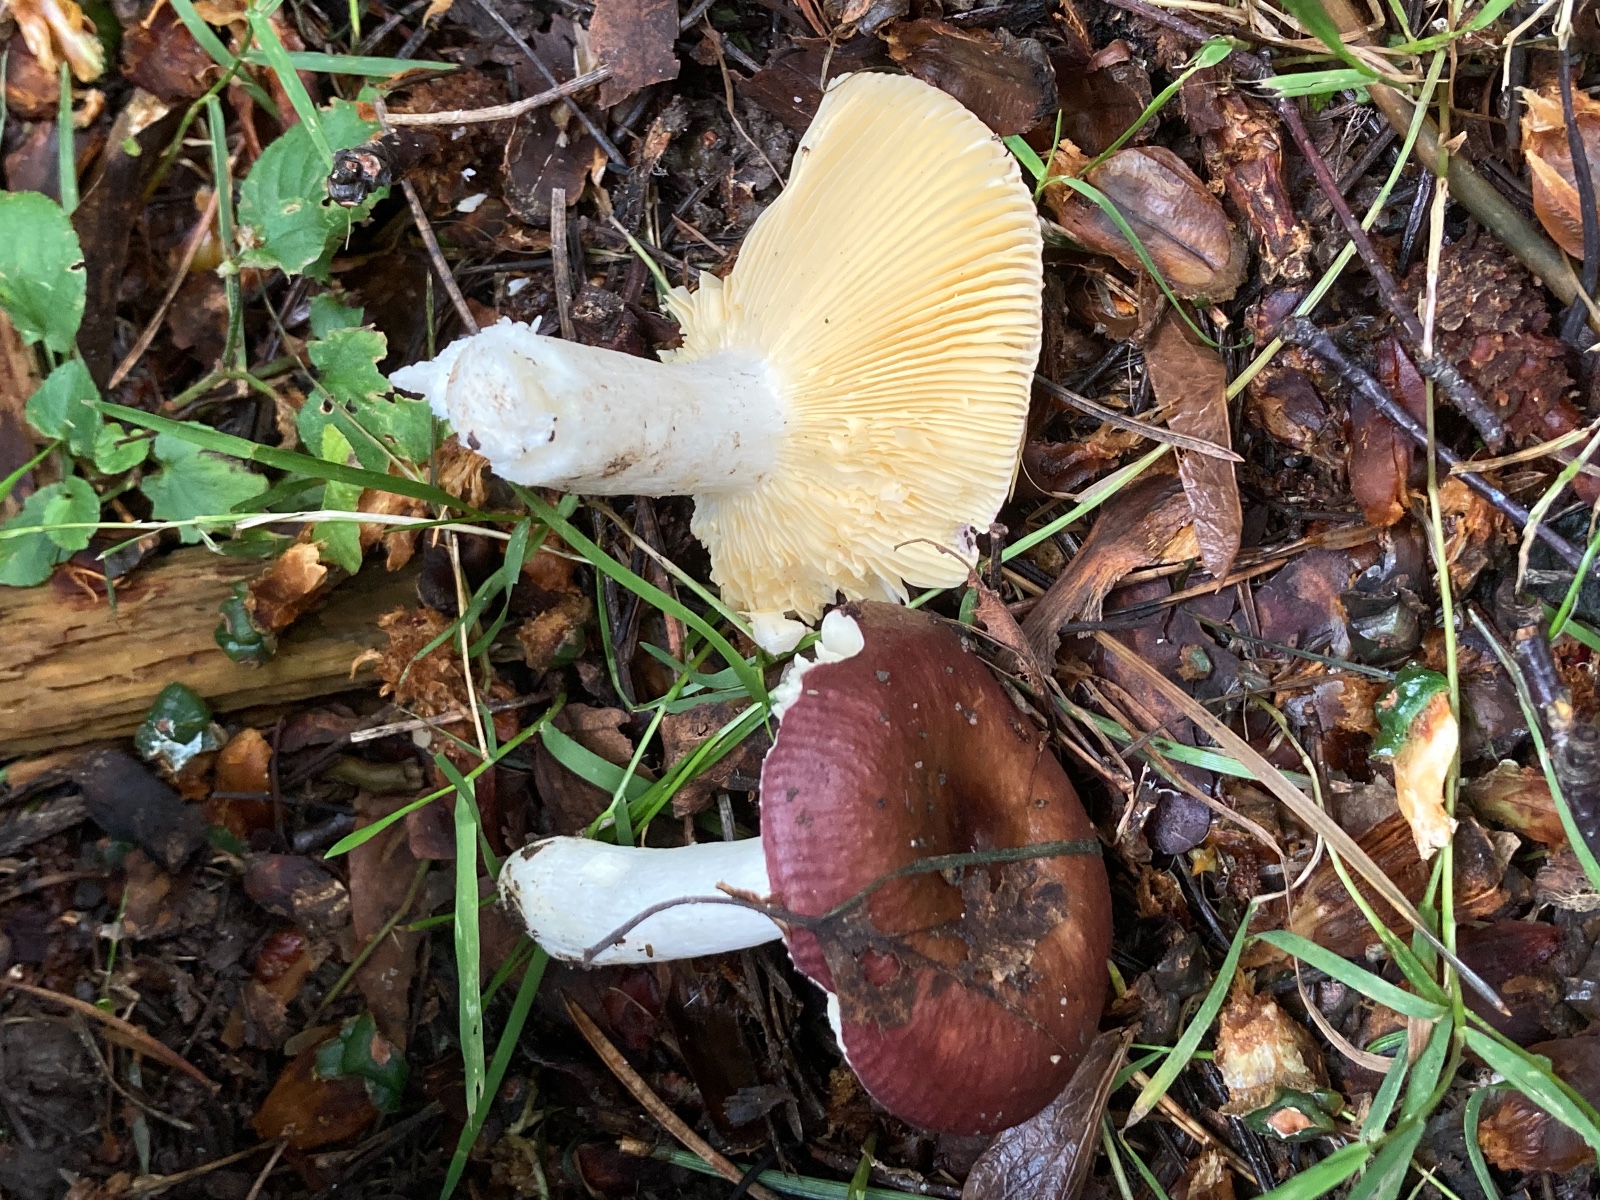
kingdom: Fungi
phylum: Basidiomycota
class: Agaricomycetes
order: Russulales
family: Russulaceae
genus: Russula
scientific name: Russula firmula
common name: nåleskarp skørhat
